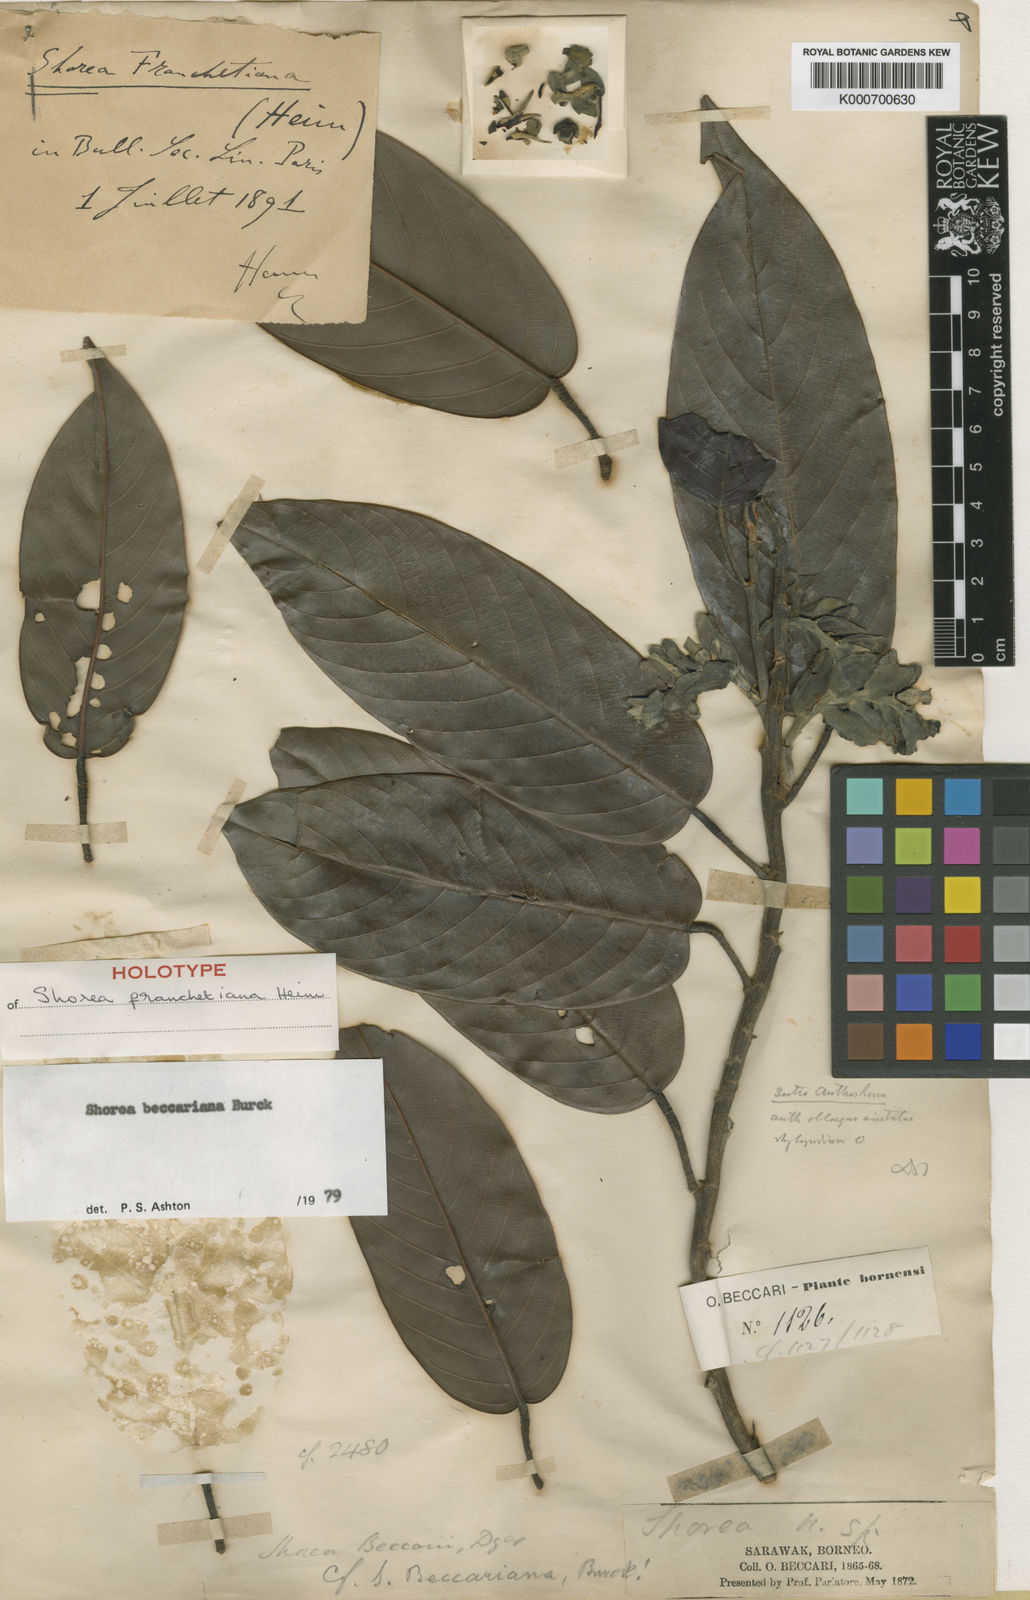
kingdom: Plantae
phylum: Tracheophyta
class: Magnoliopsida
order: Malvales
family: Dipterocarpaceae
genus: Shorea
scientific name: Shorea beccariana
